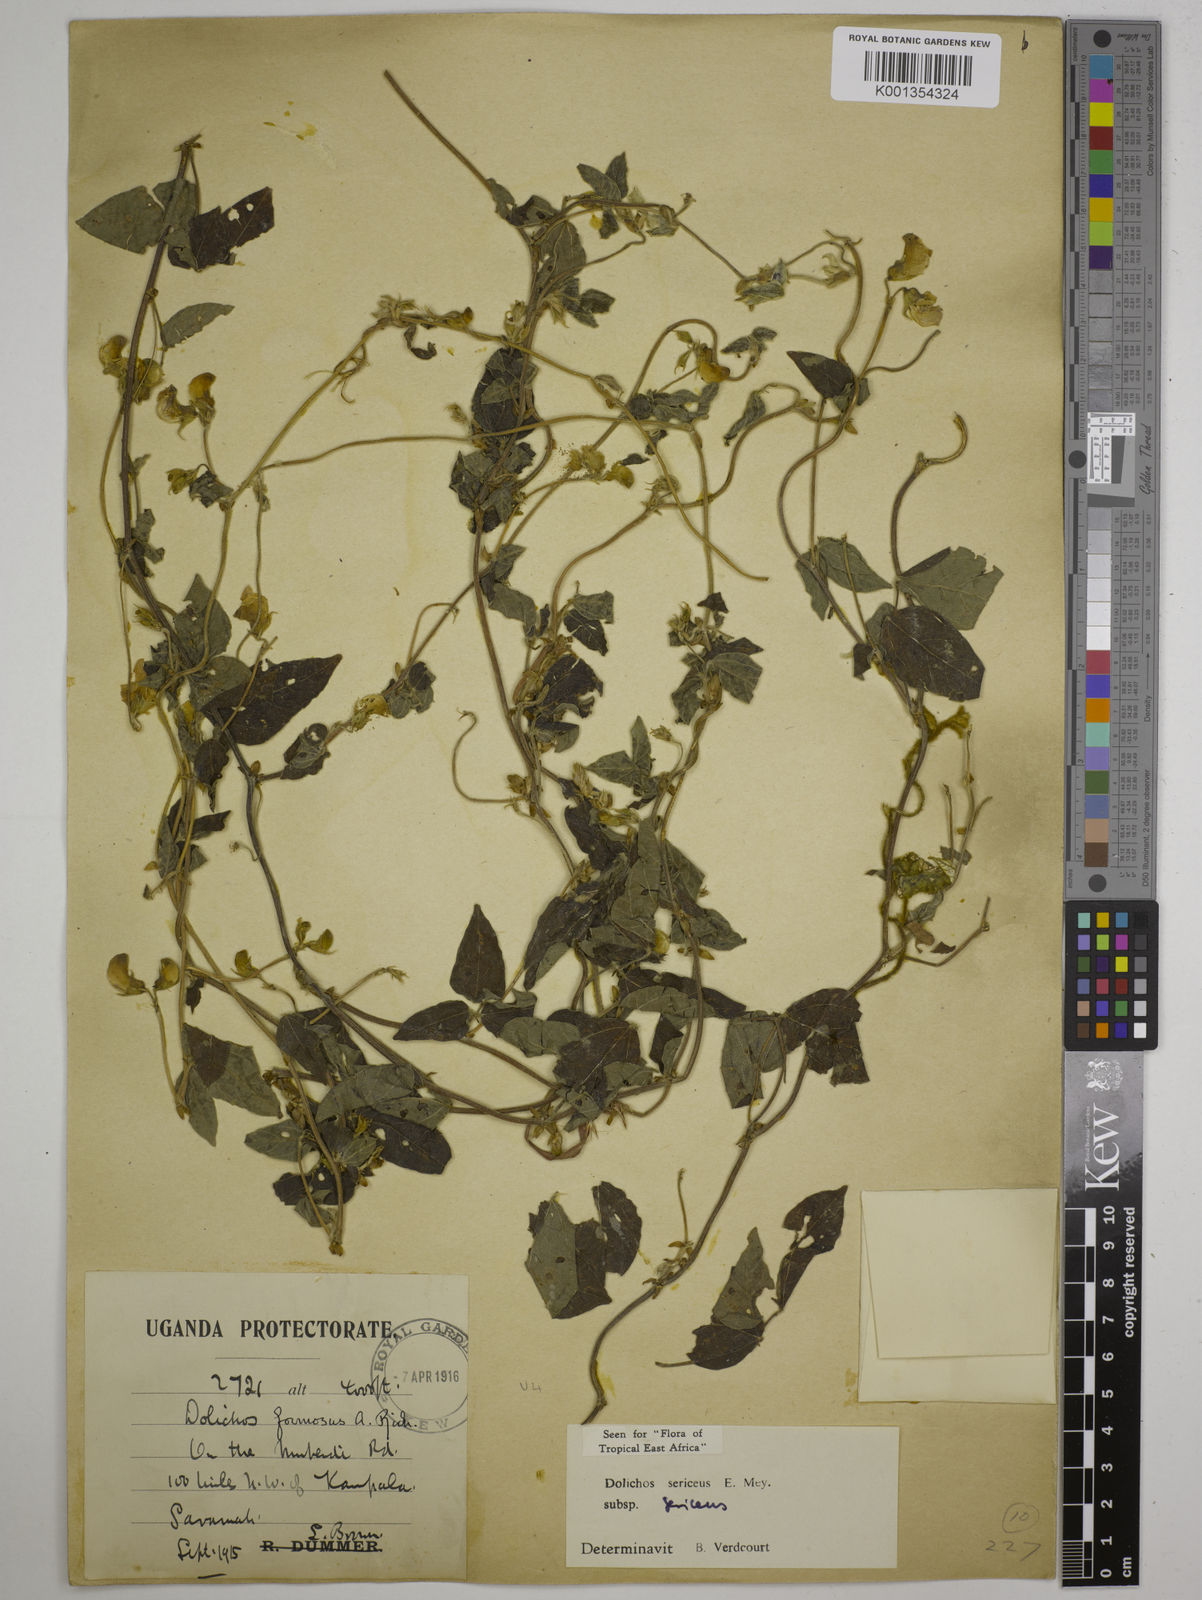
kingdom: Plantae
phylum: Tracheophyta
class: Magnoliopsida
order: Fabales
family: Fabaceae
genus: Dolichos
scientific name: Dolichos sericeus
